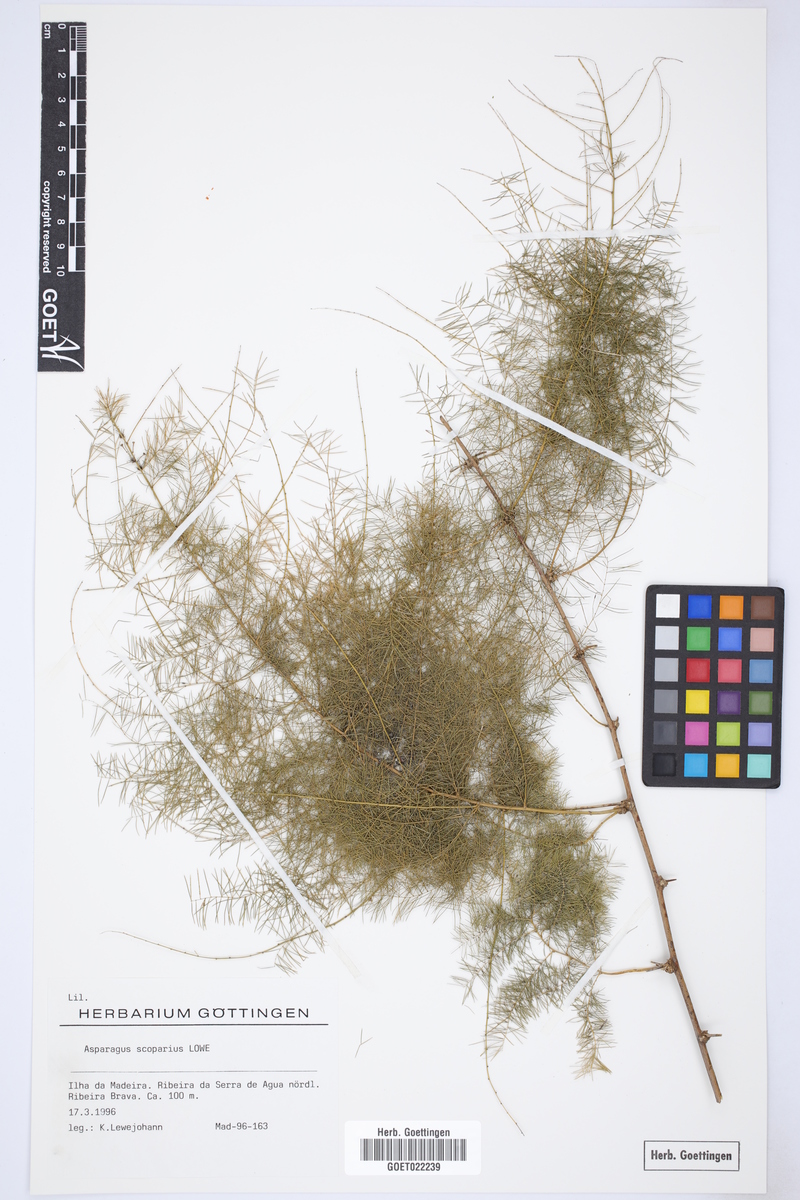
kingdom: Plantae
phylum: Tracheophyta
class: Liliopsida
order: Asparagales
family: Asparagaceae
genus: Asparagus
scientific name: Asparagus scoparius
